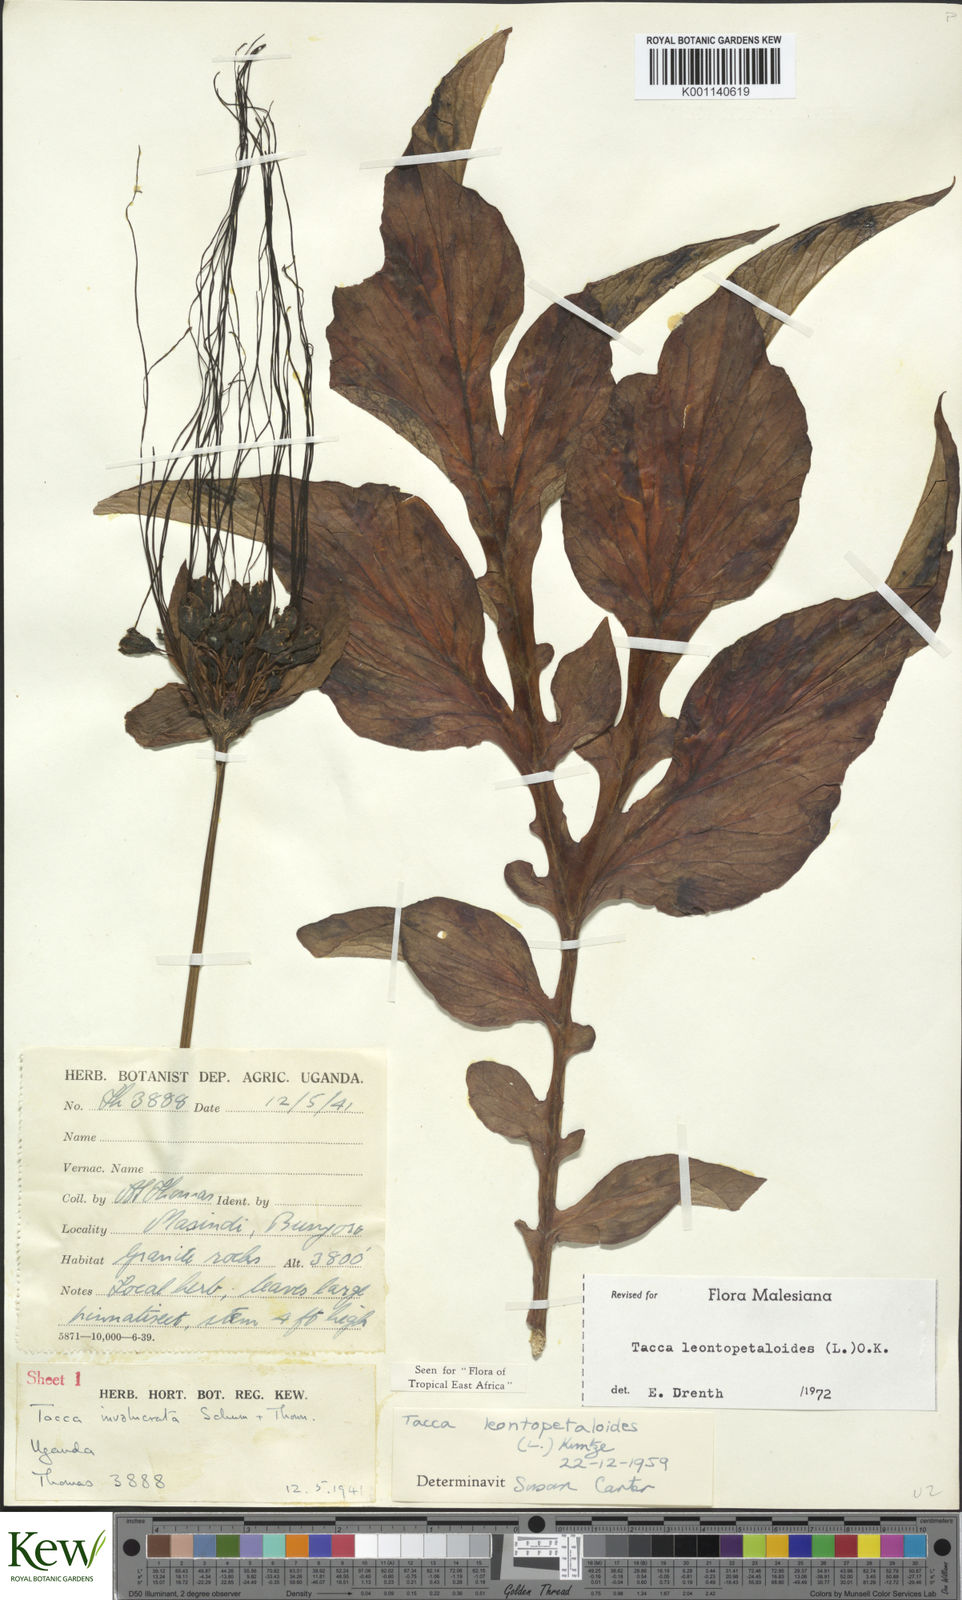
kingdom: Plantae
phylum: Tracheophyta
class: Liliopsida
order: Dioscoreales
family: Dioscoreaceae
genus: Tacca
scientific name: Tacca leontopetaloides
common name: Arrowroot
